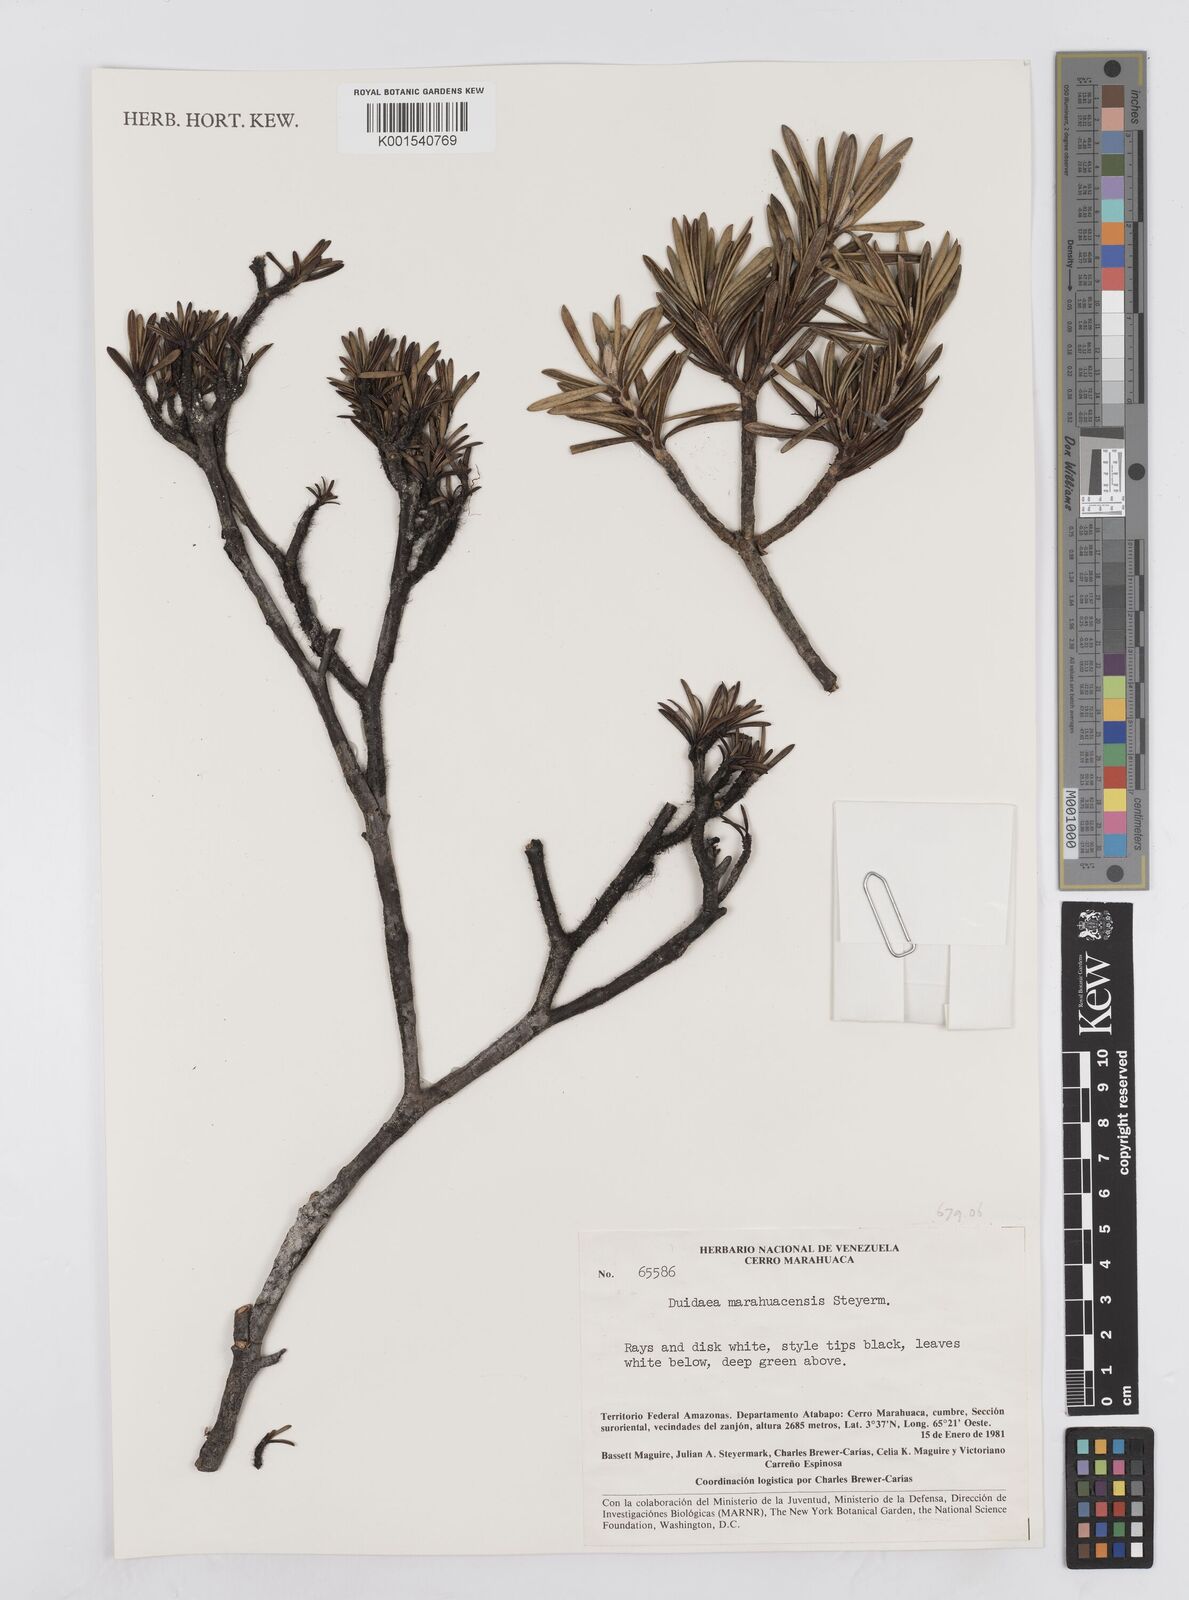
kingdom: Plantae
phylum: Tracheophyta
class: Magnoliopsida
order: Asterales
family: Asteraceae
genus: Duidaea
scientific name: Duidaea marahuacensis
